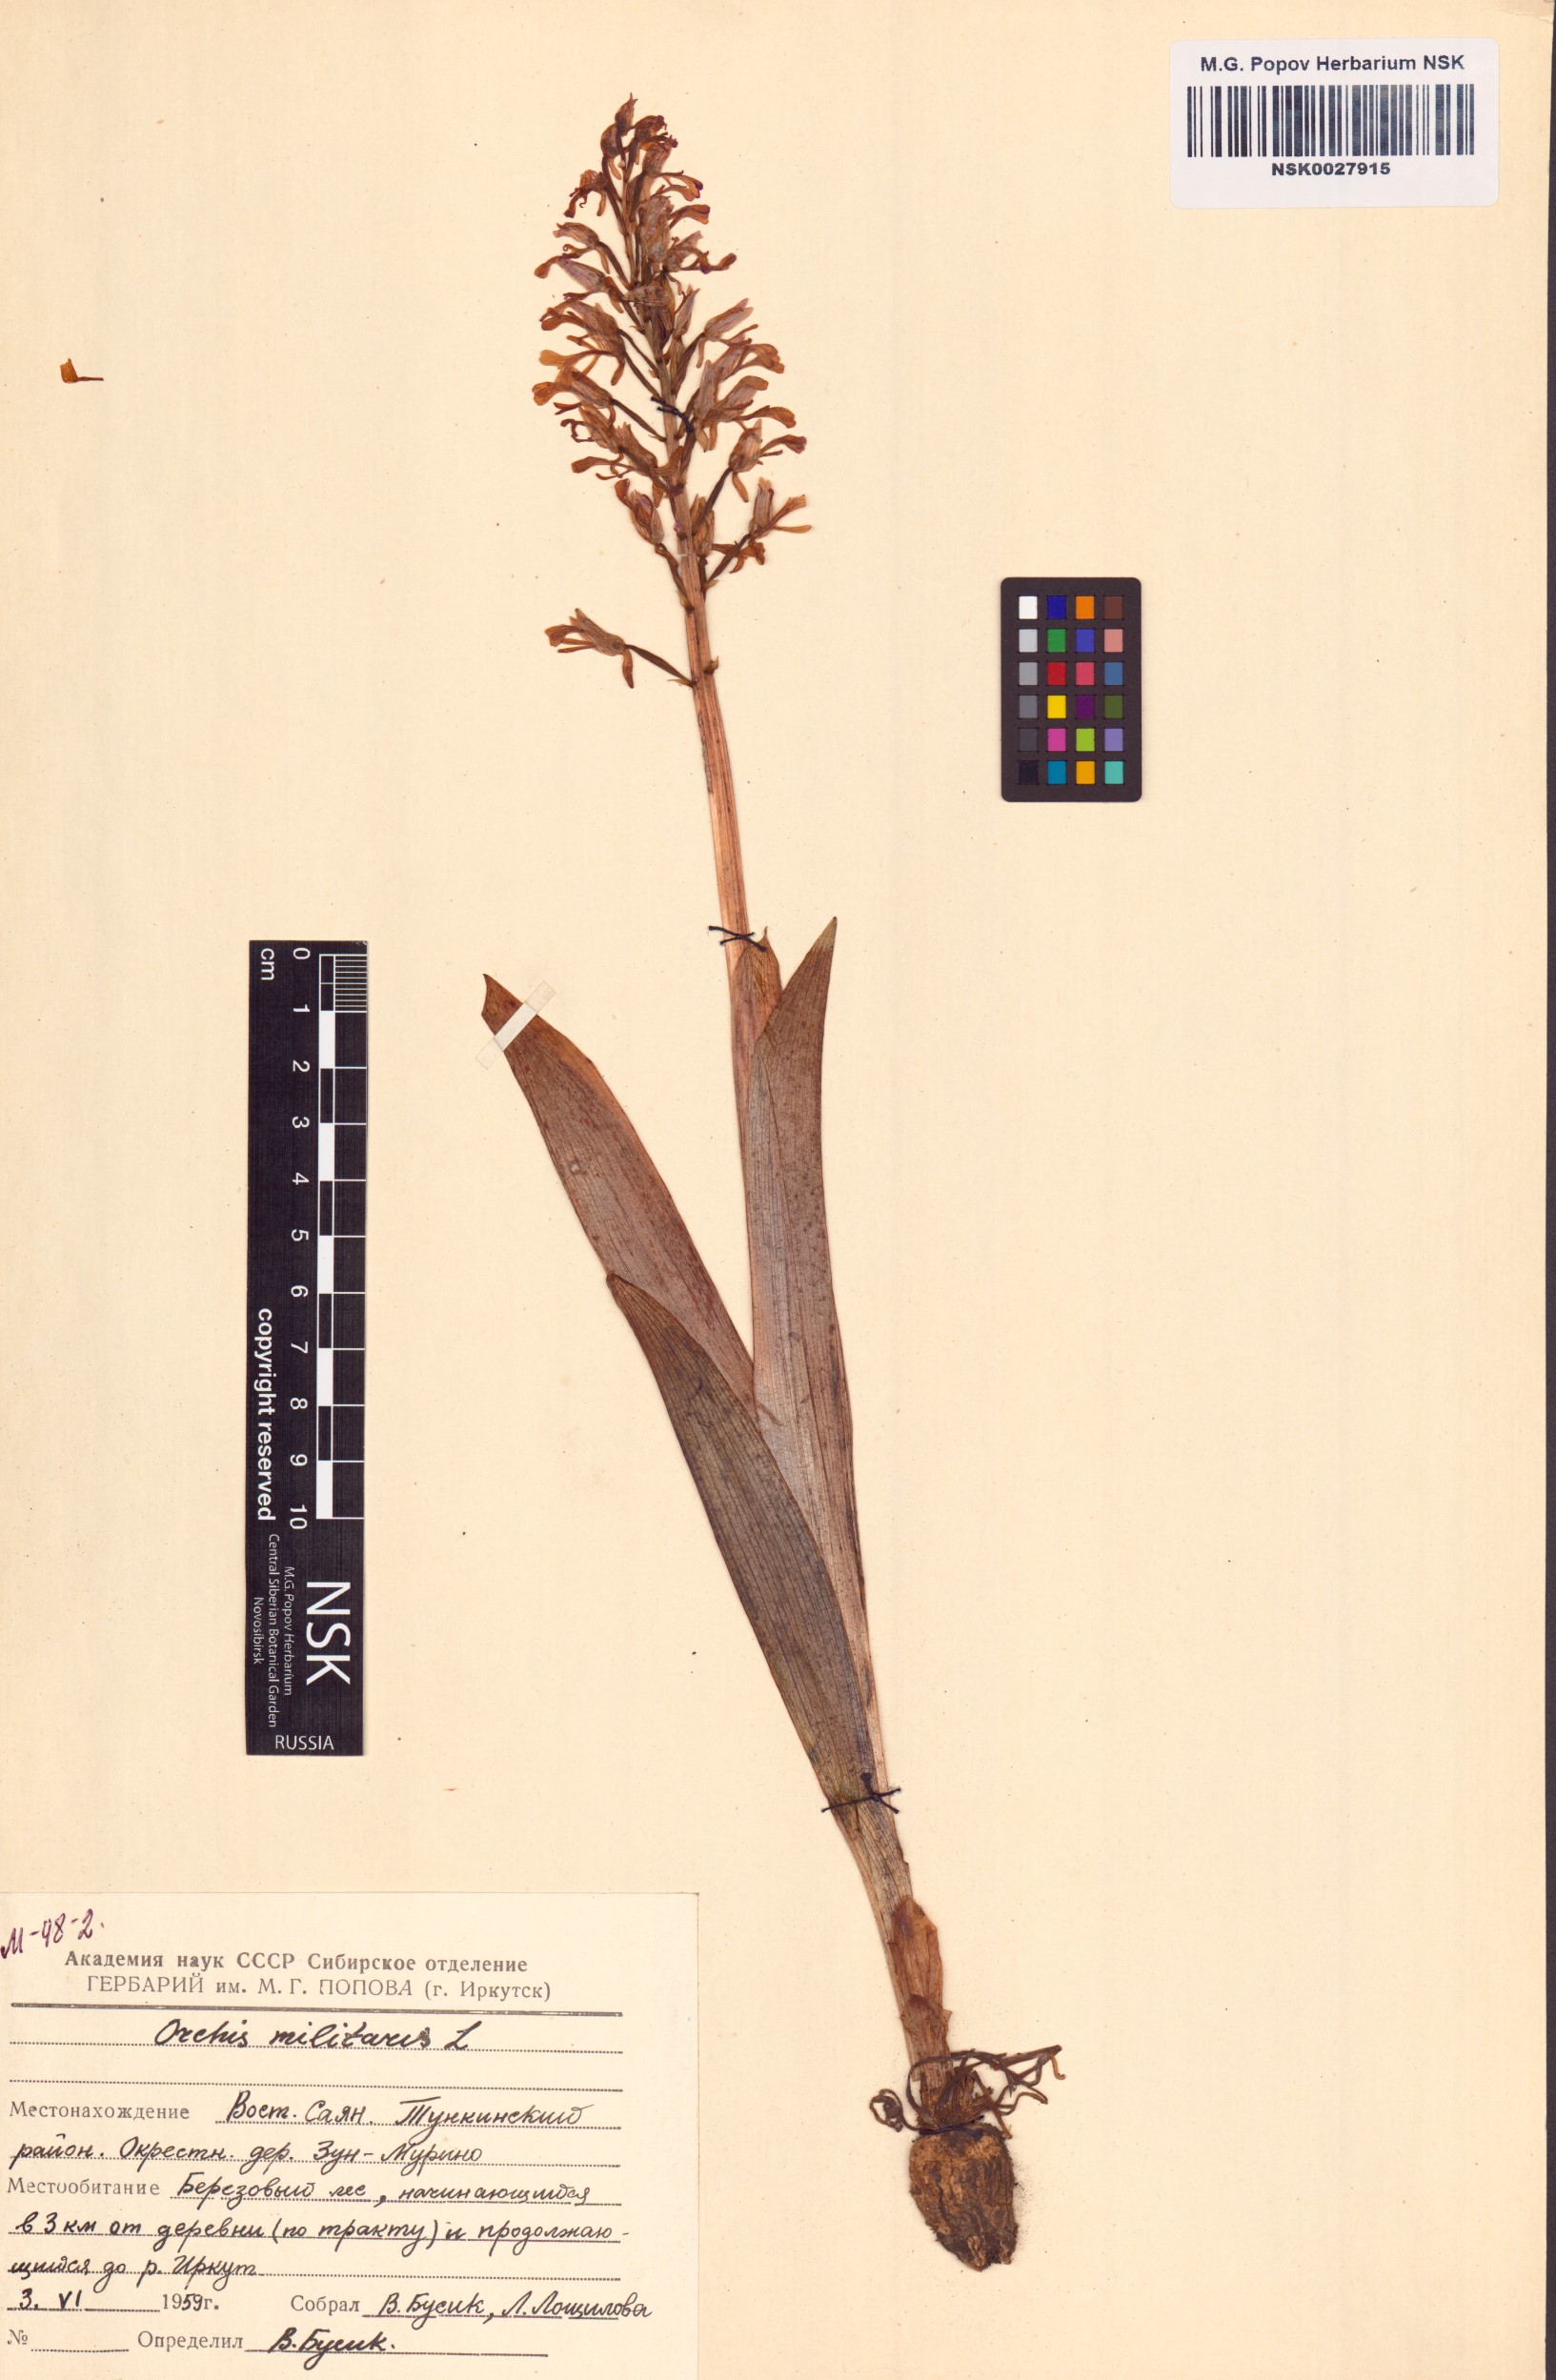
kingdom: Plantae
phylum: Tracheophyta
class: Liliopsida
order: Asparagales
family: Orchidaceae
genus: Orchis
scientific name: Orchis militaris
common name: Military orchid
